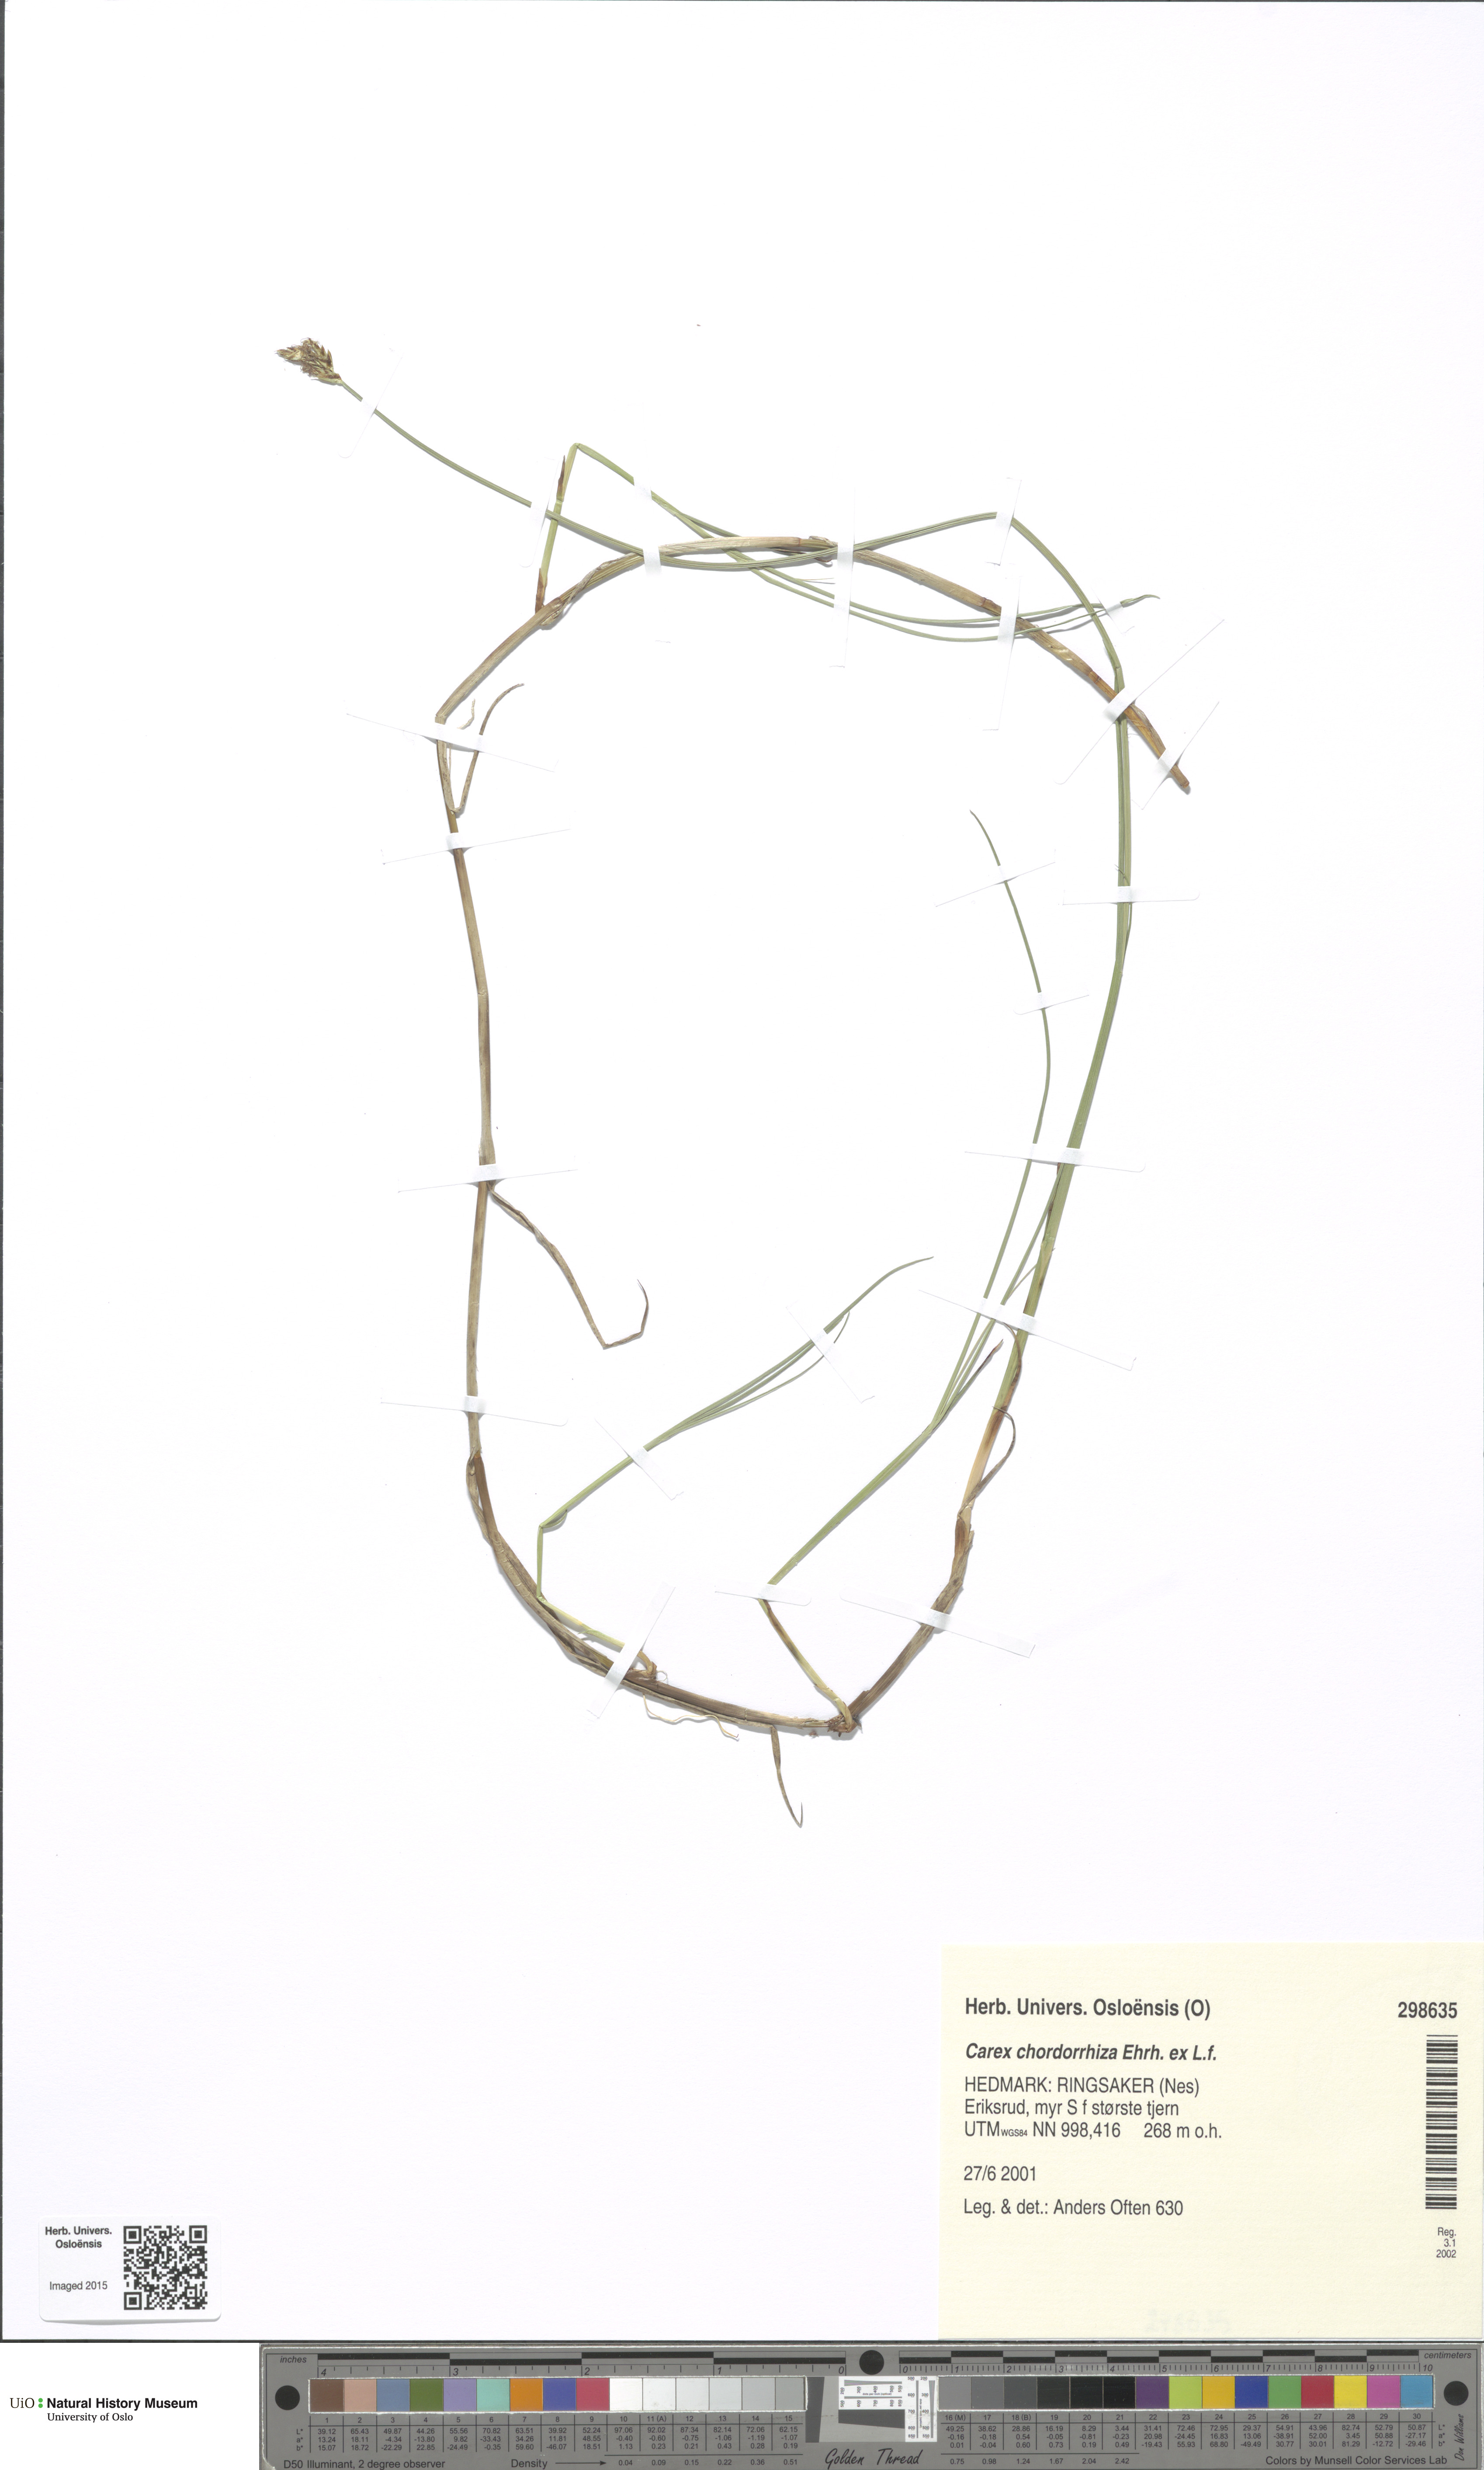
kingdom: Plantae
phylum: Tracheophyta
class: Liliopsida
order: Poales
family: Cyperaceae
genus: Carex
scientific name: Carex chordorrhiza
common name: String sedge
